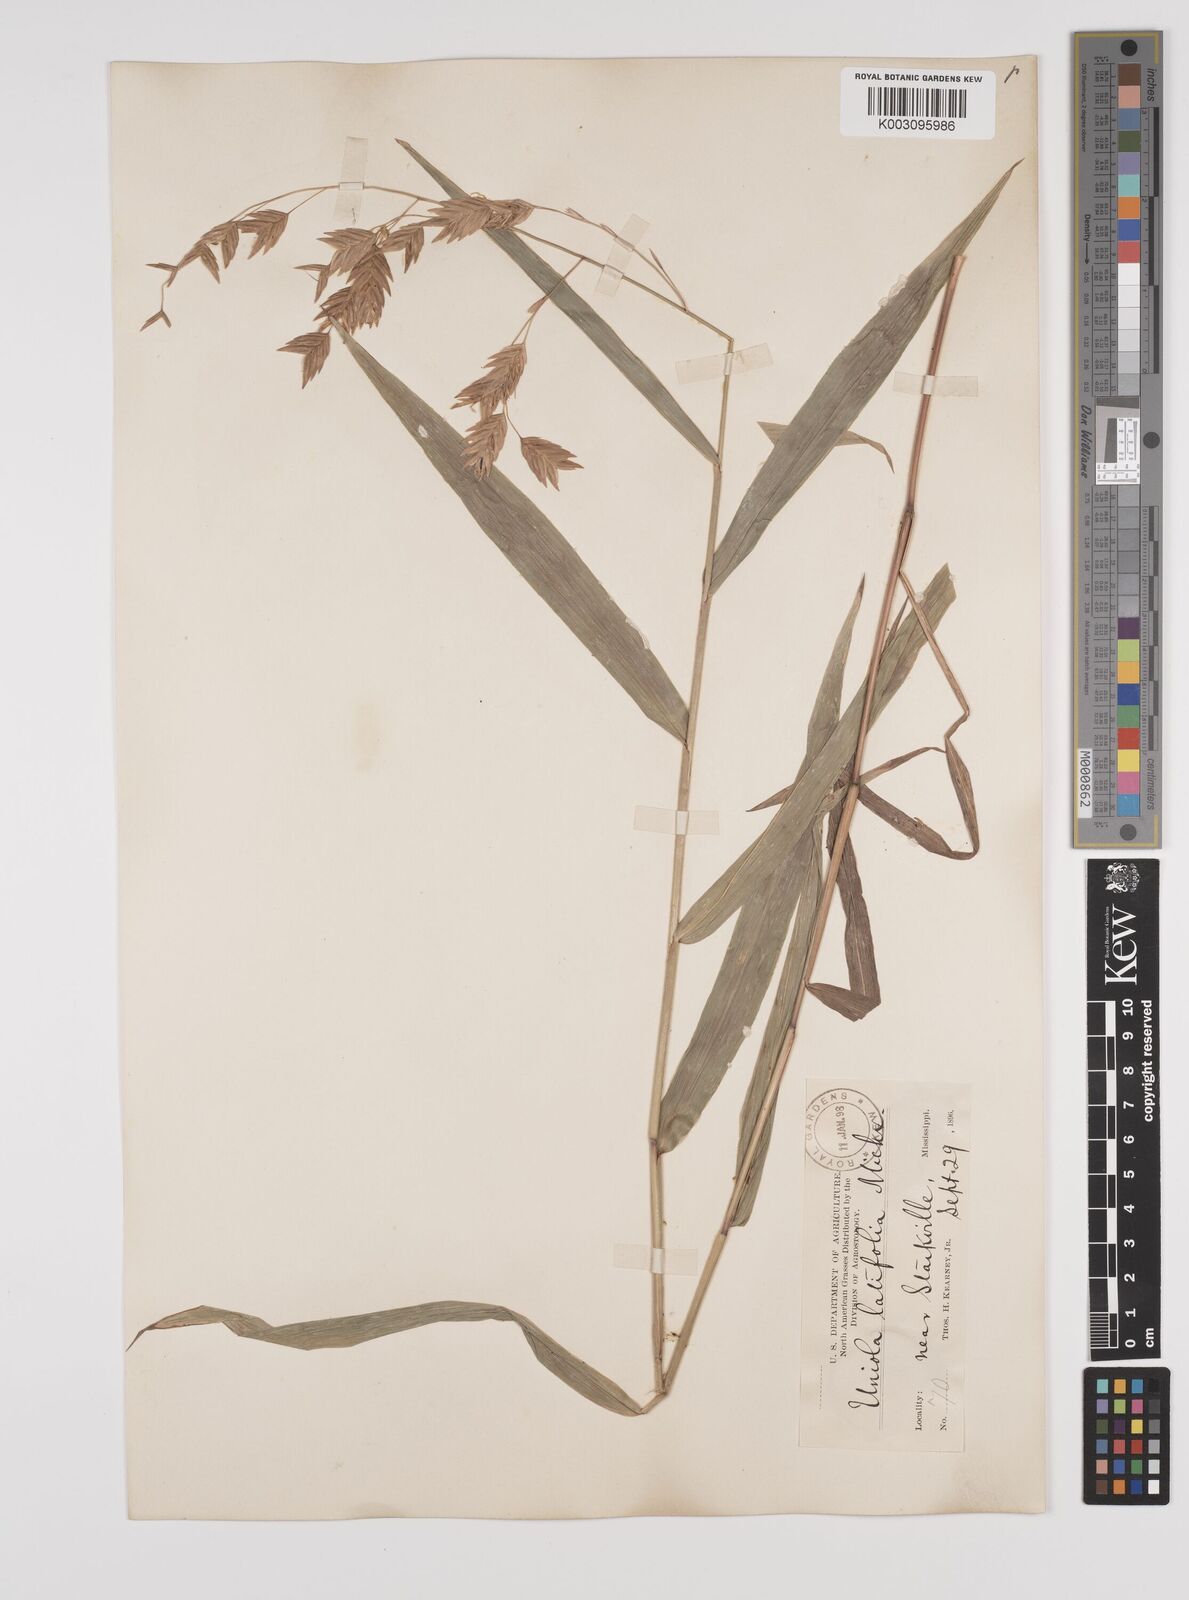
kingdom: Plantae
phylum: Tracheophyta
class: Liliopsida
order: Poales
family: Poaceae
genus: Chasmanthium
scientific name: Chasmanthium latifolium
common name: Broad-leaved chasmanthium
